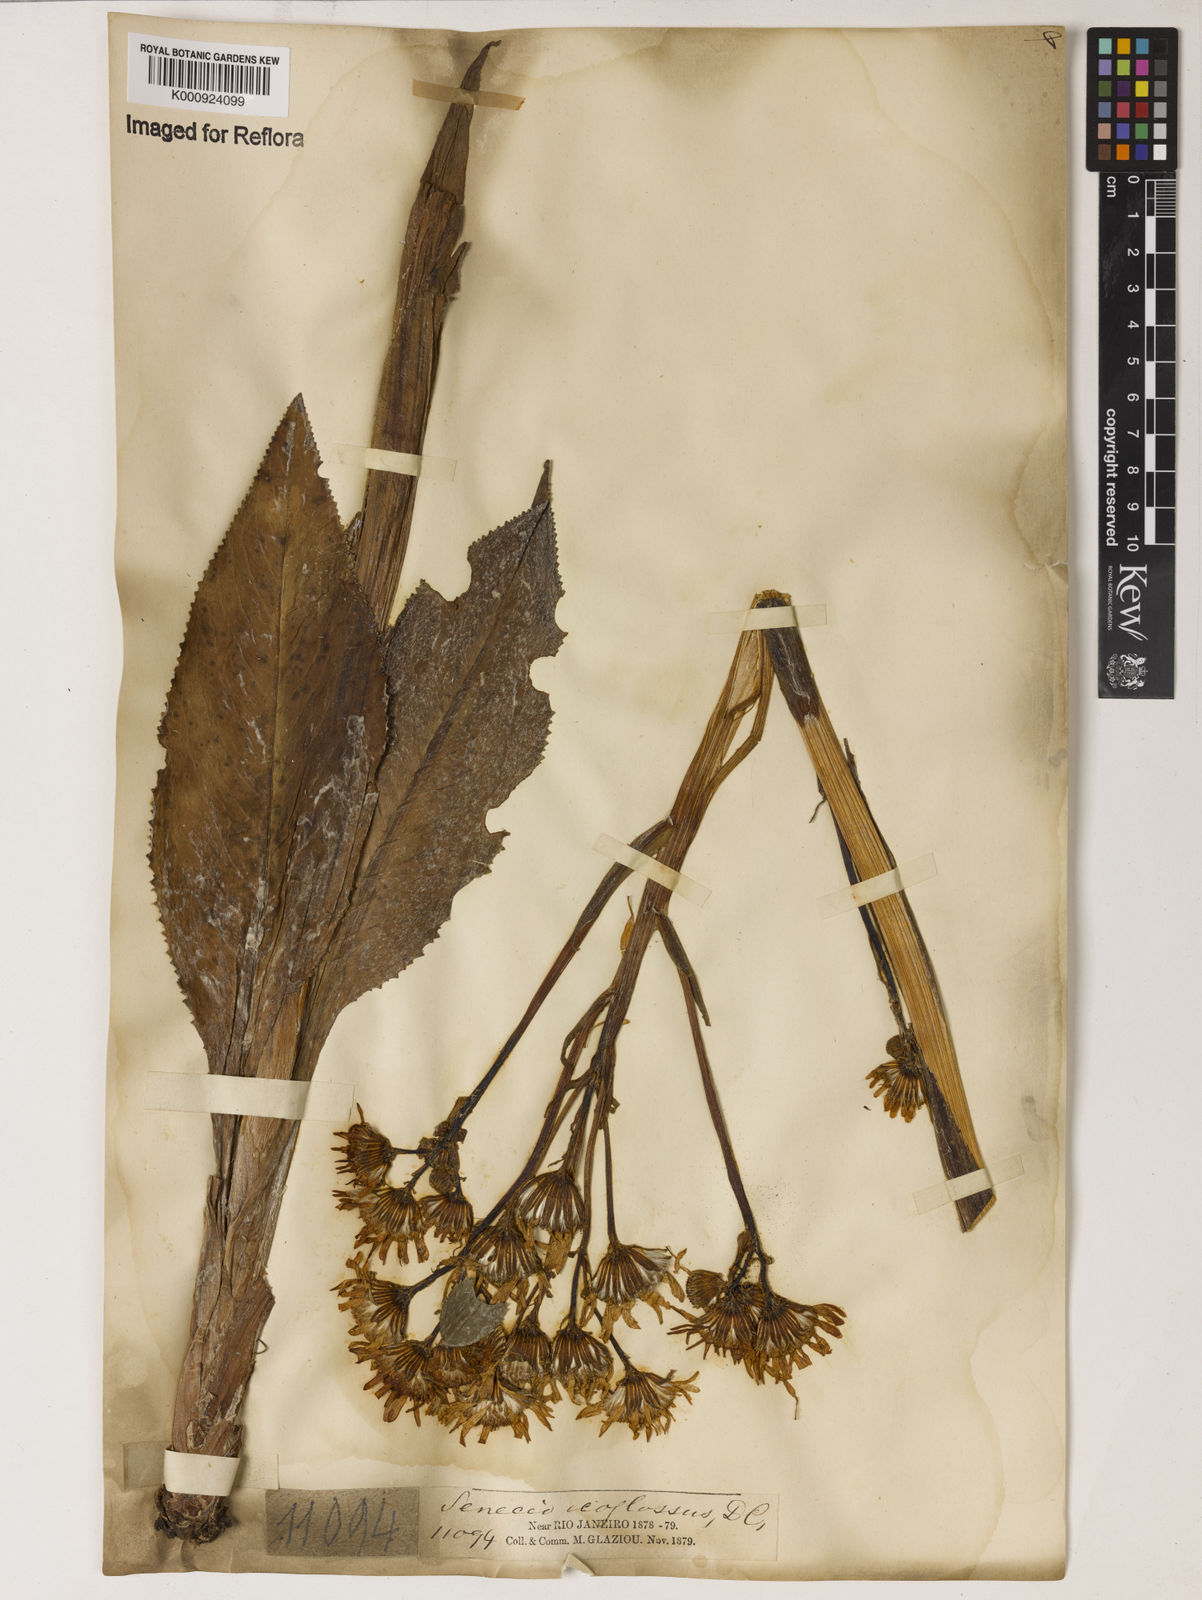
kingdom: Plantae
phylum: Tracheophyta
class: Magnoliopsida
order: Asterales
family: Asteraceae
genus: Senecio
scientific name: Senecio icoglossus
